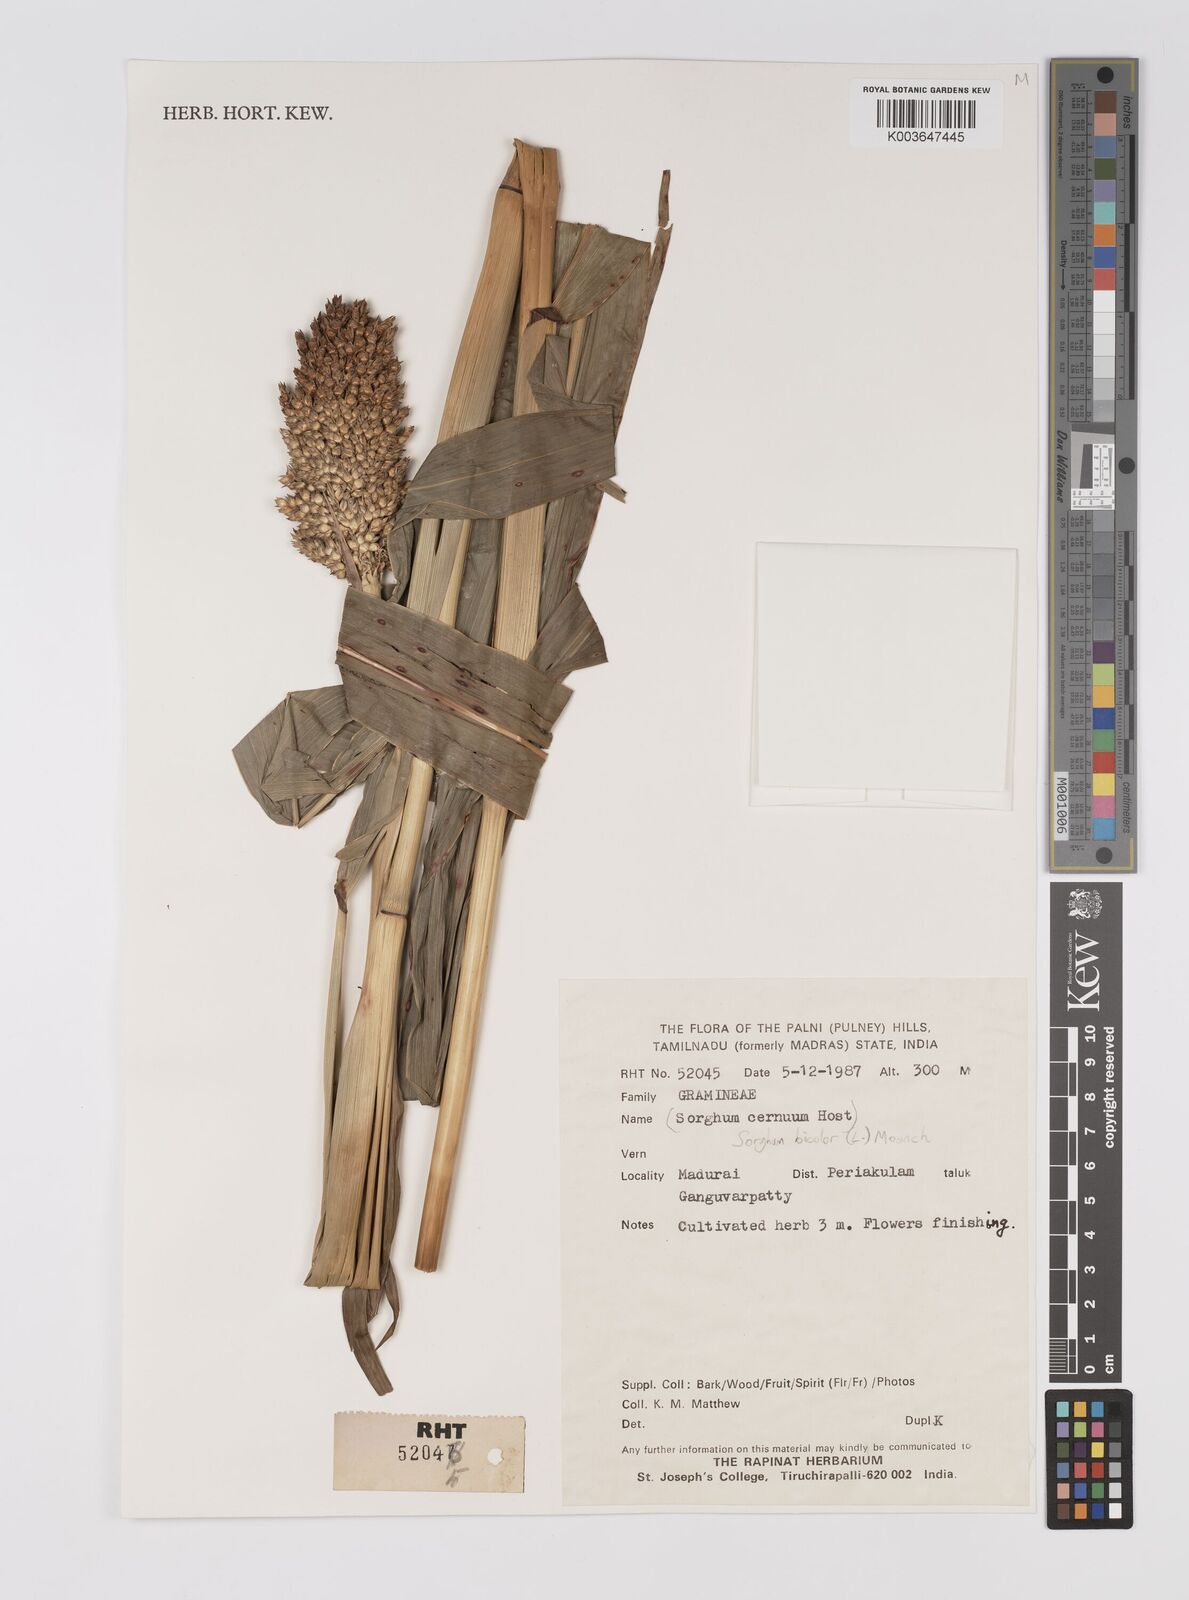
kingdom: Plantae
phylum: Tracheophyta
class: Liliopsida
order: Poales
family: Poaceae
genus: Hyparrhenia
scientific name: Hyparrhenia dichroa
